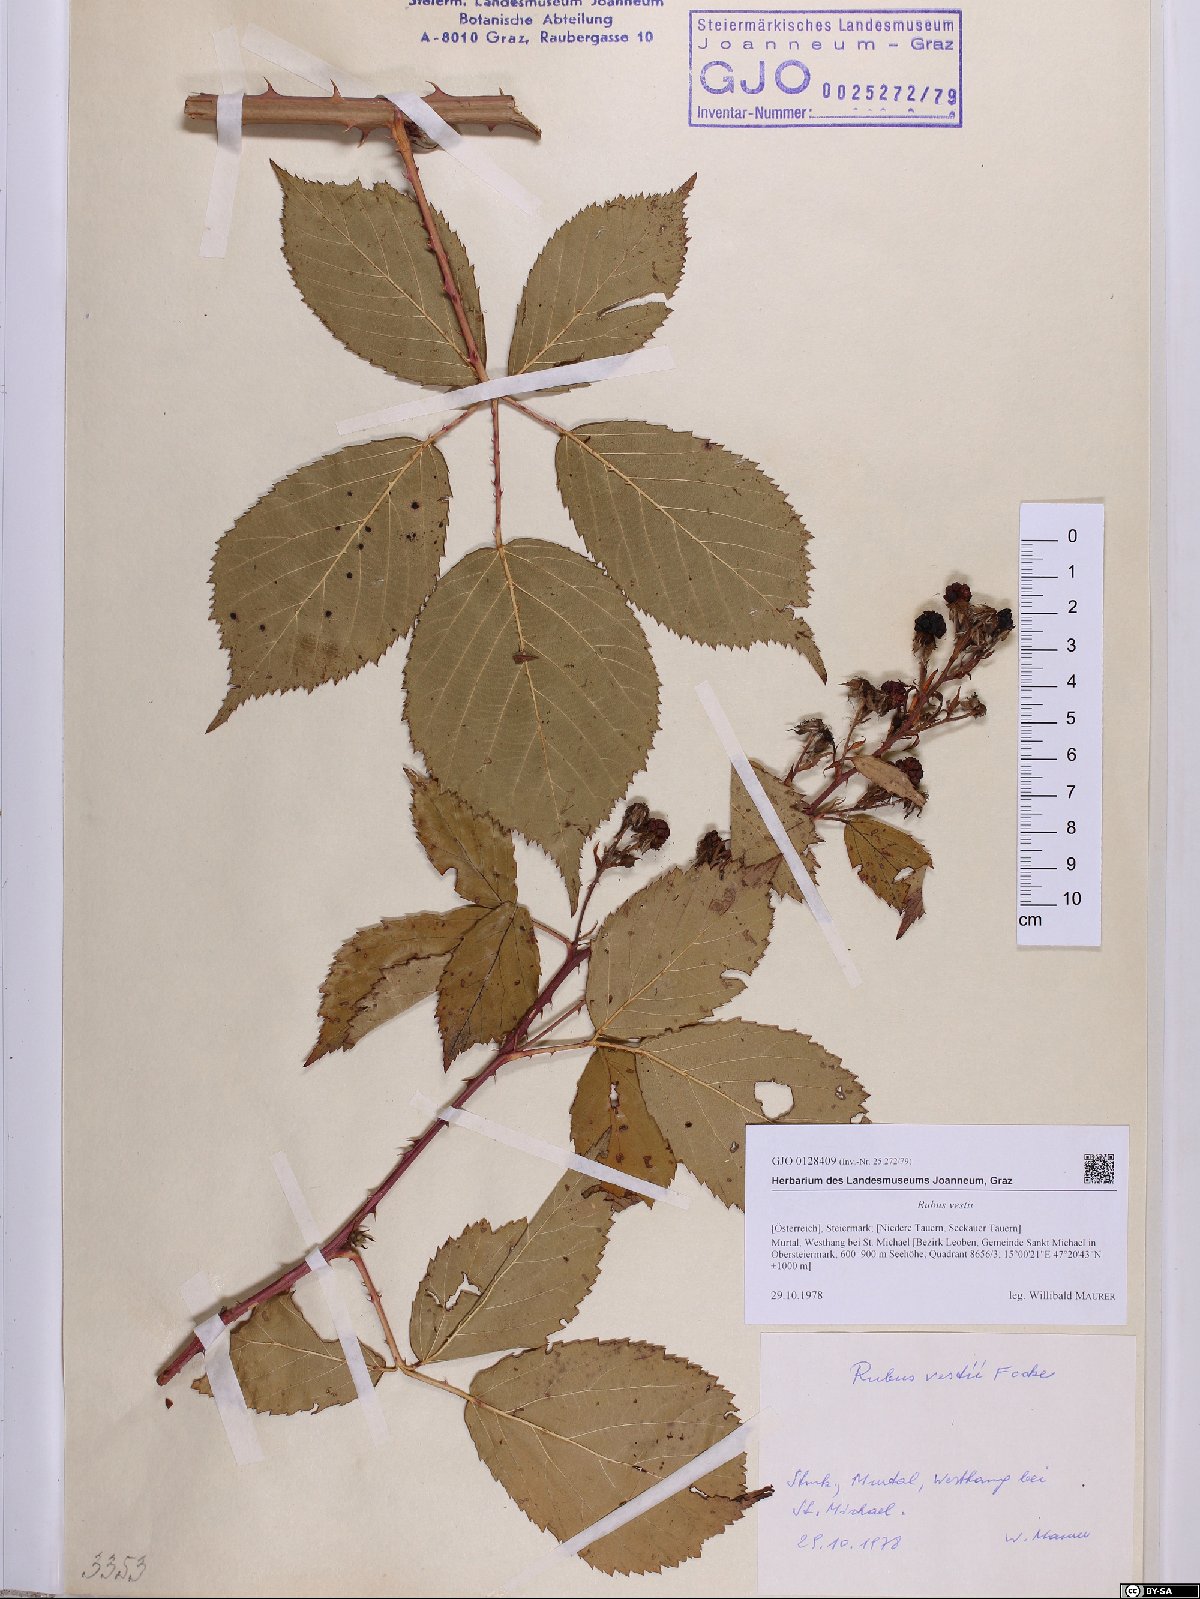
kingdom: Plantae
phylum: Tracheophyta
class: Magnoliopsida
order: Rosales
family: Rosaceae
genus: Rubus
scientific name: Rubus constrictus
